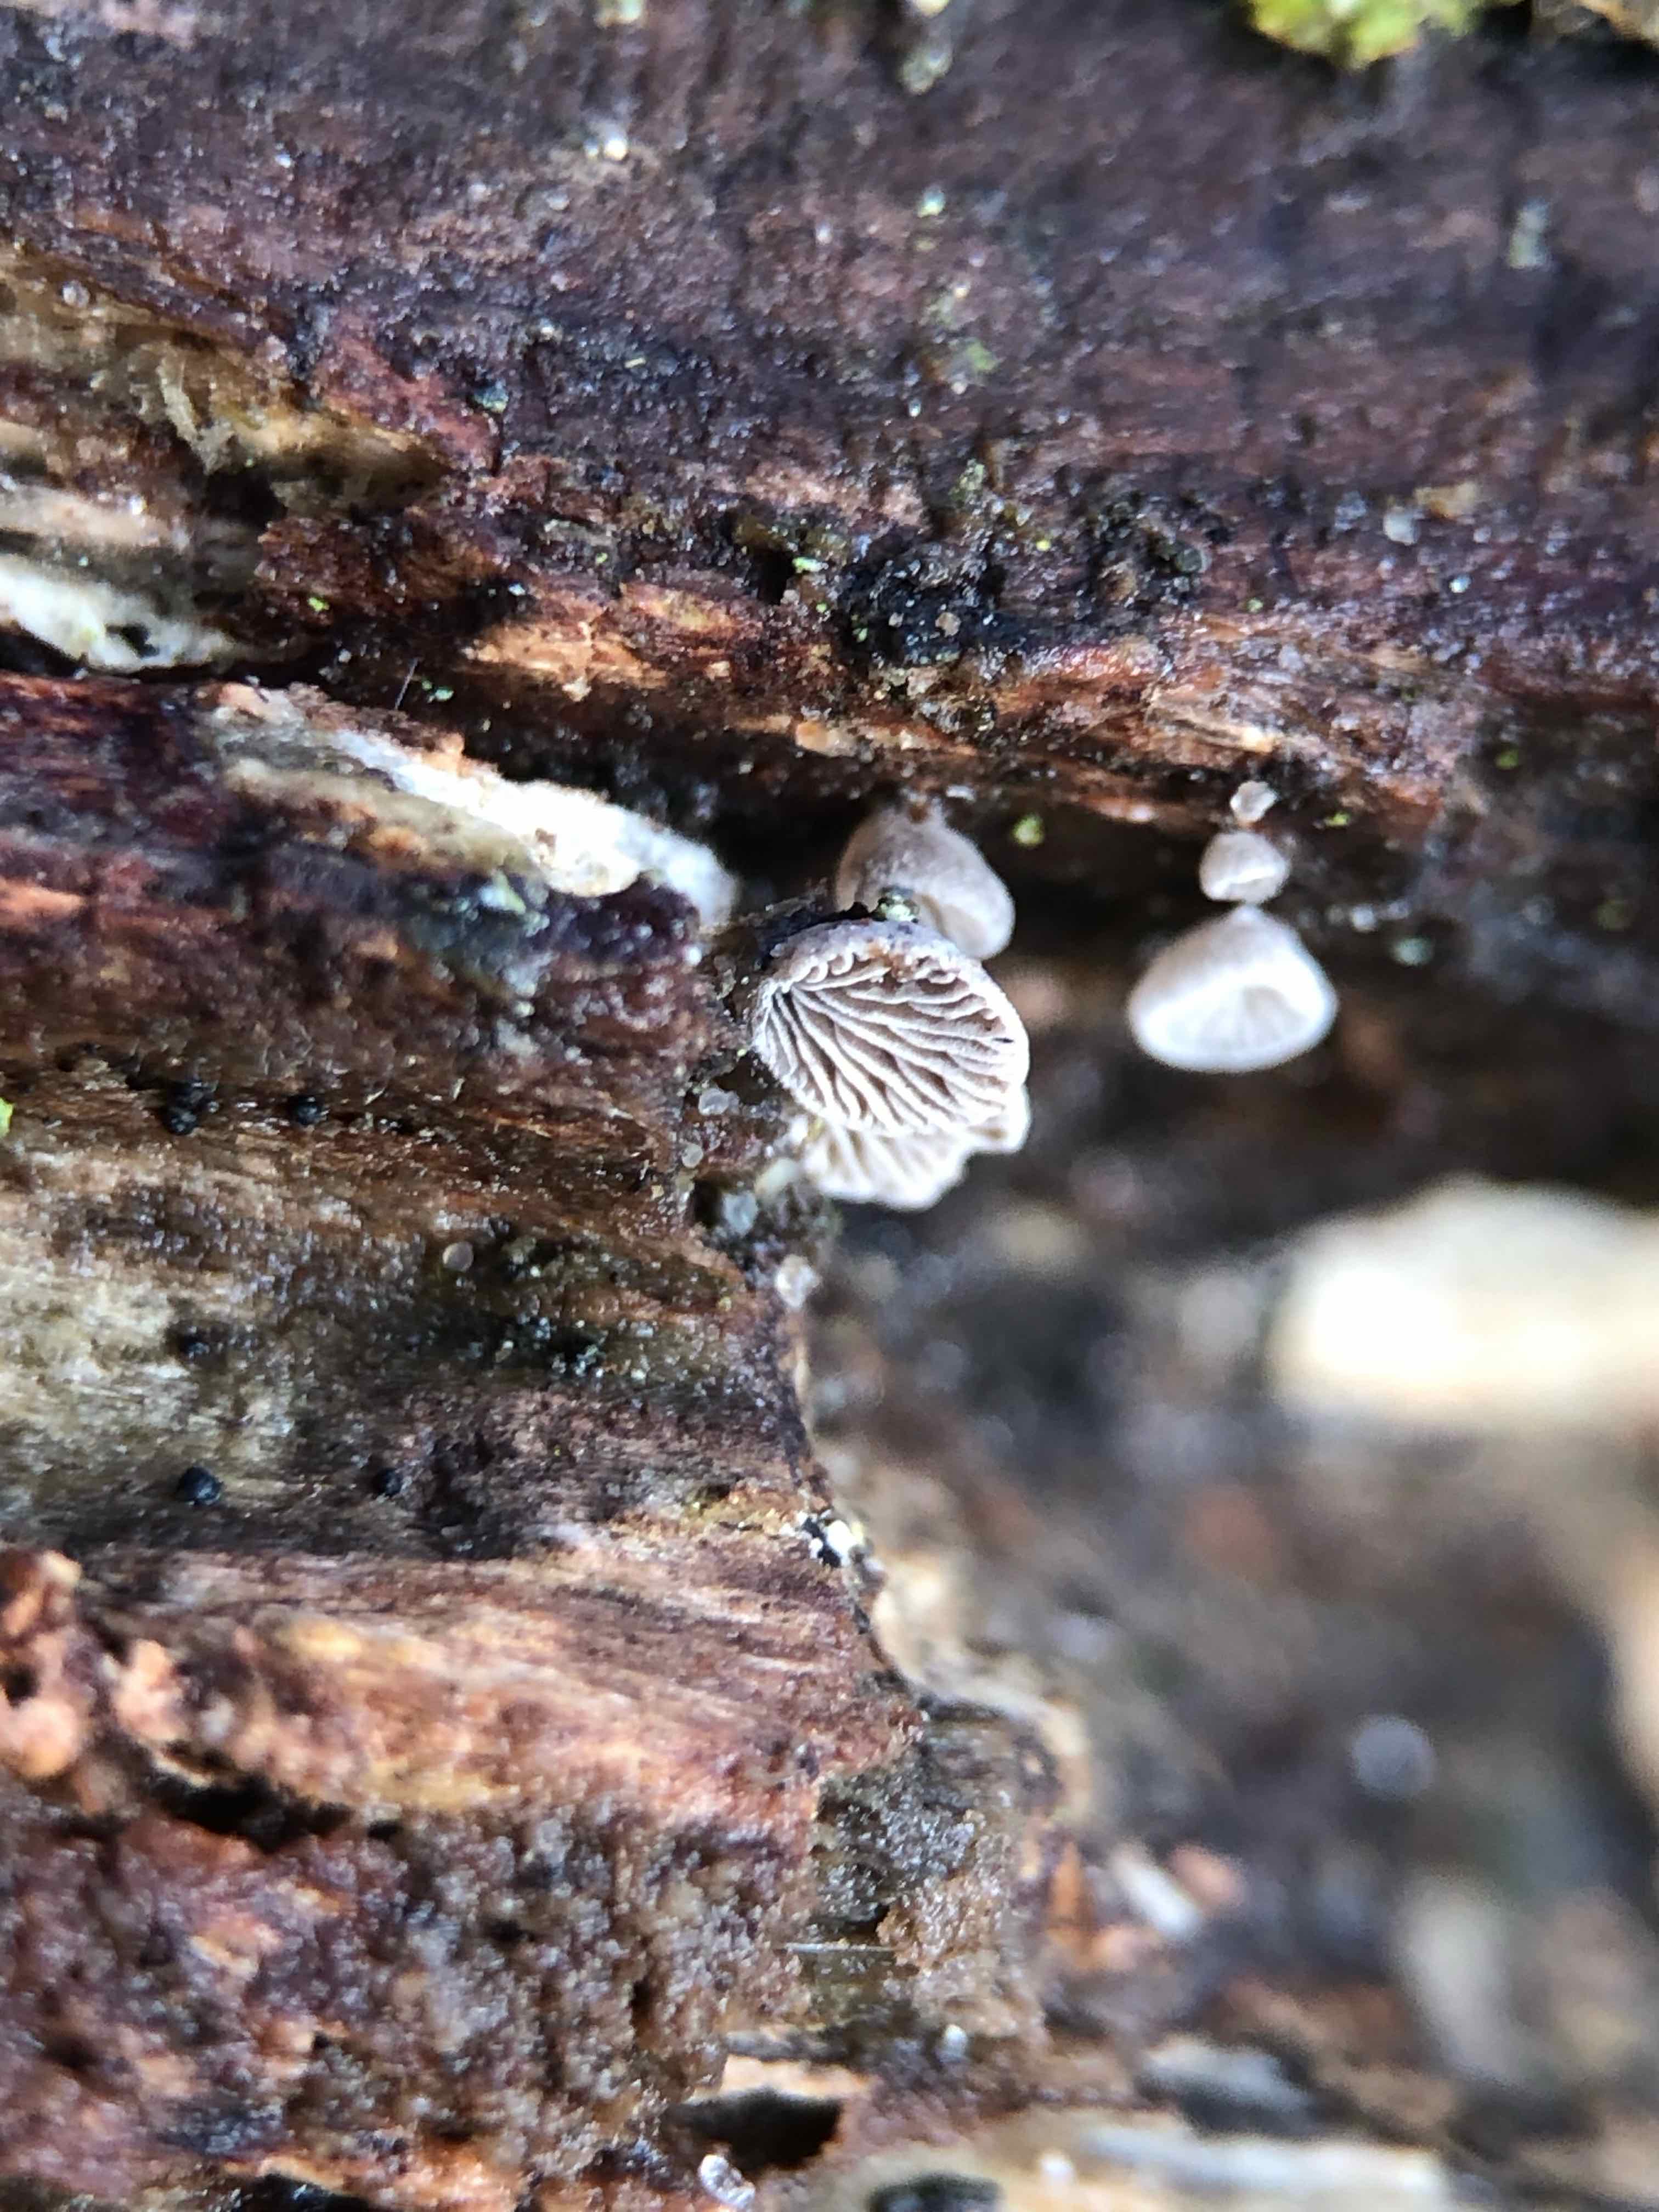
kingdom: Fungi
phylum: Basidiomycota
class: Agaricomycetes
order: Agaricales
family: Pleurotaceae
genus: Resupinatus
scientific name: Resupinatus trichotis
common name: mørkfiltet barkhat
